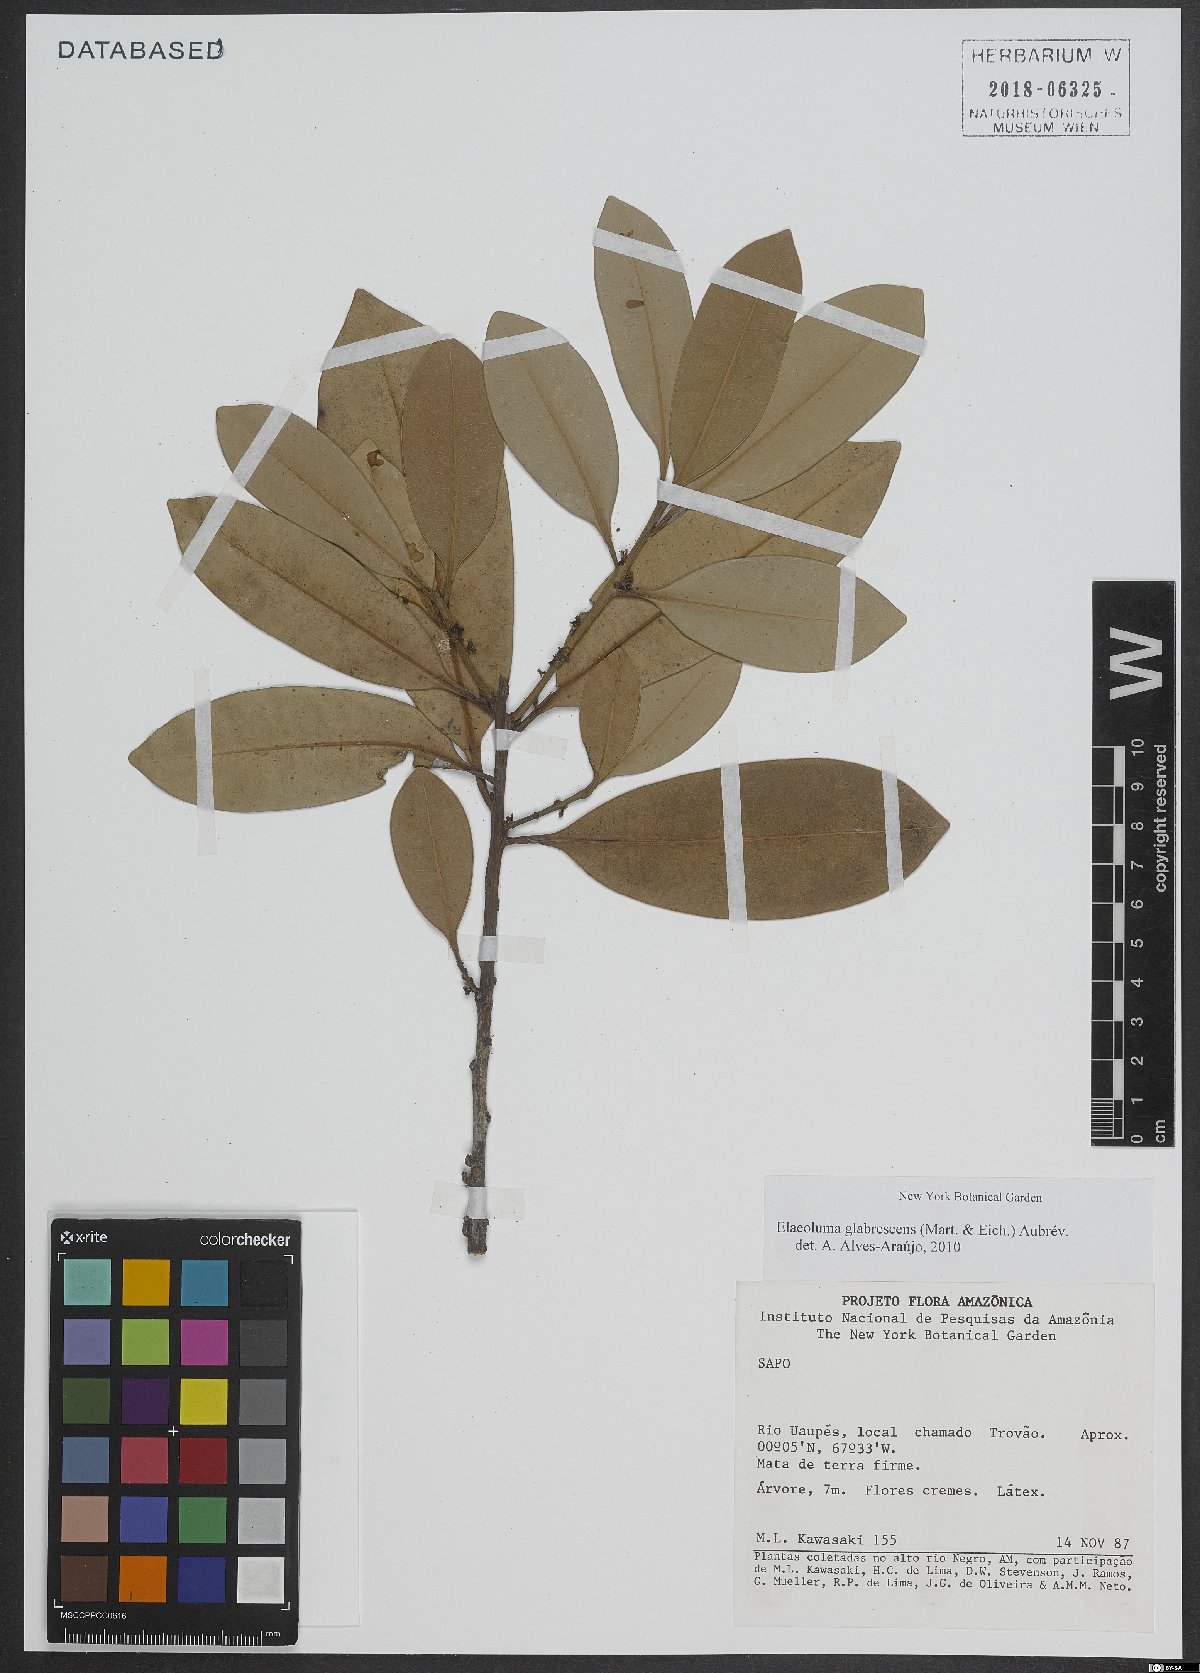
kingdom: Plantae
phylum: Tracheophyta
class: Magnoliopsida
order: Ericales
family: Sapotaceae
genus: Elaeoluma
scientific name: Elaeoluma glabrescens
